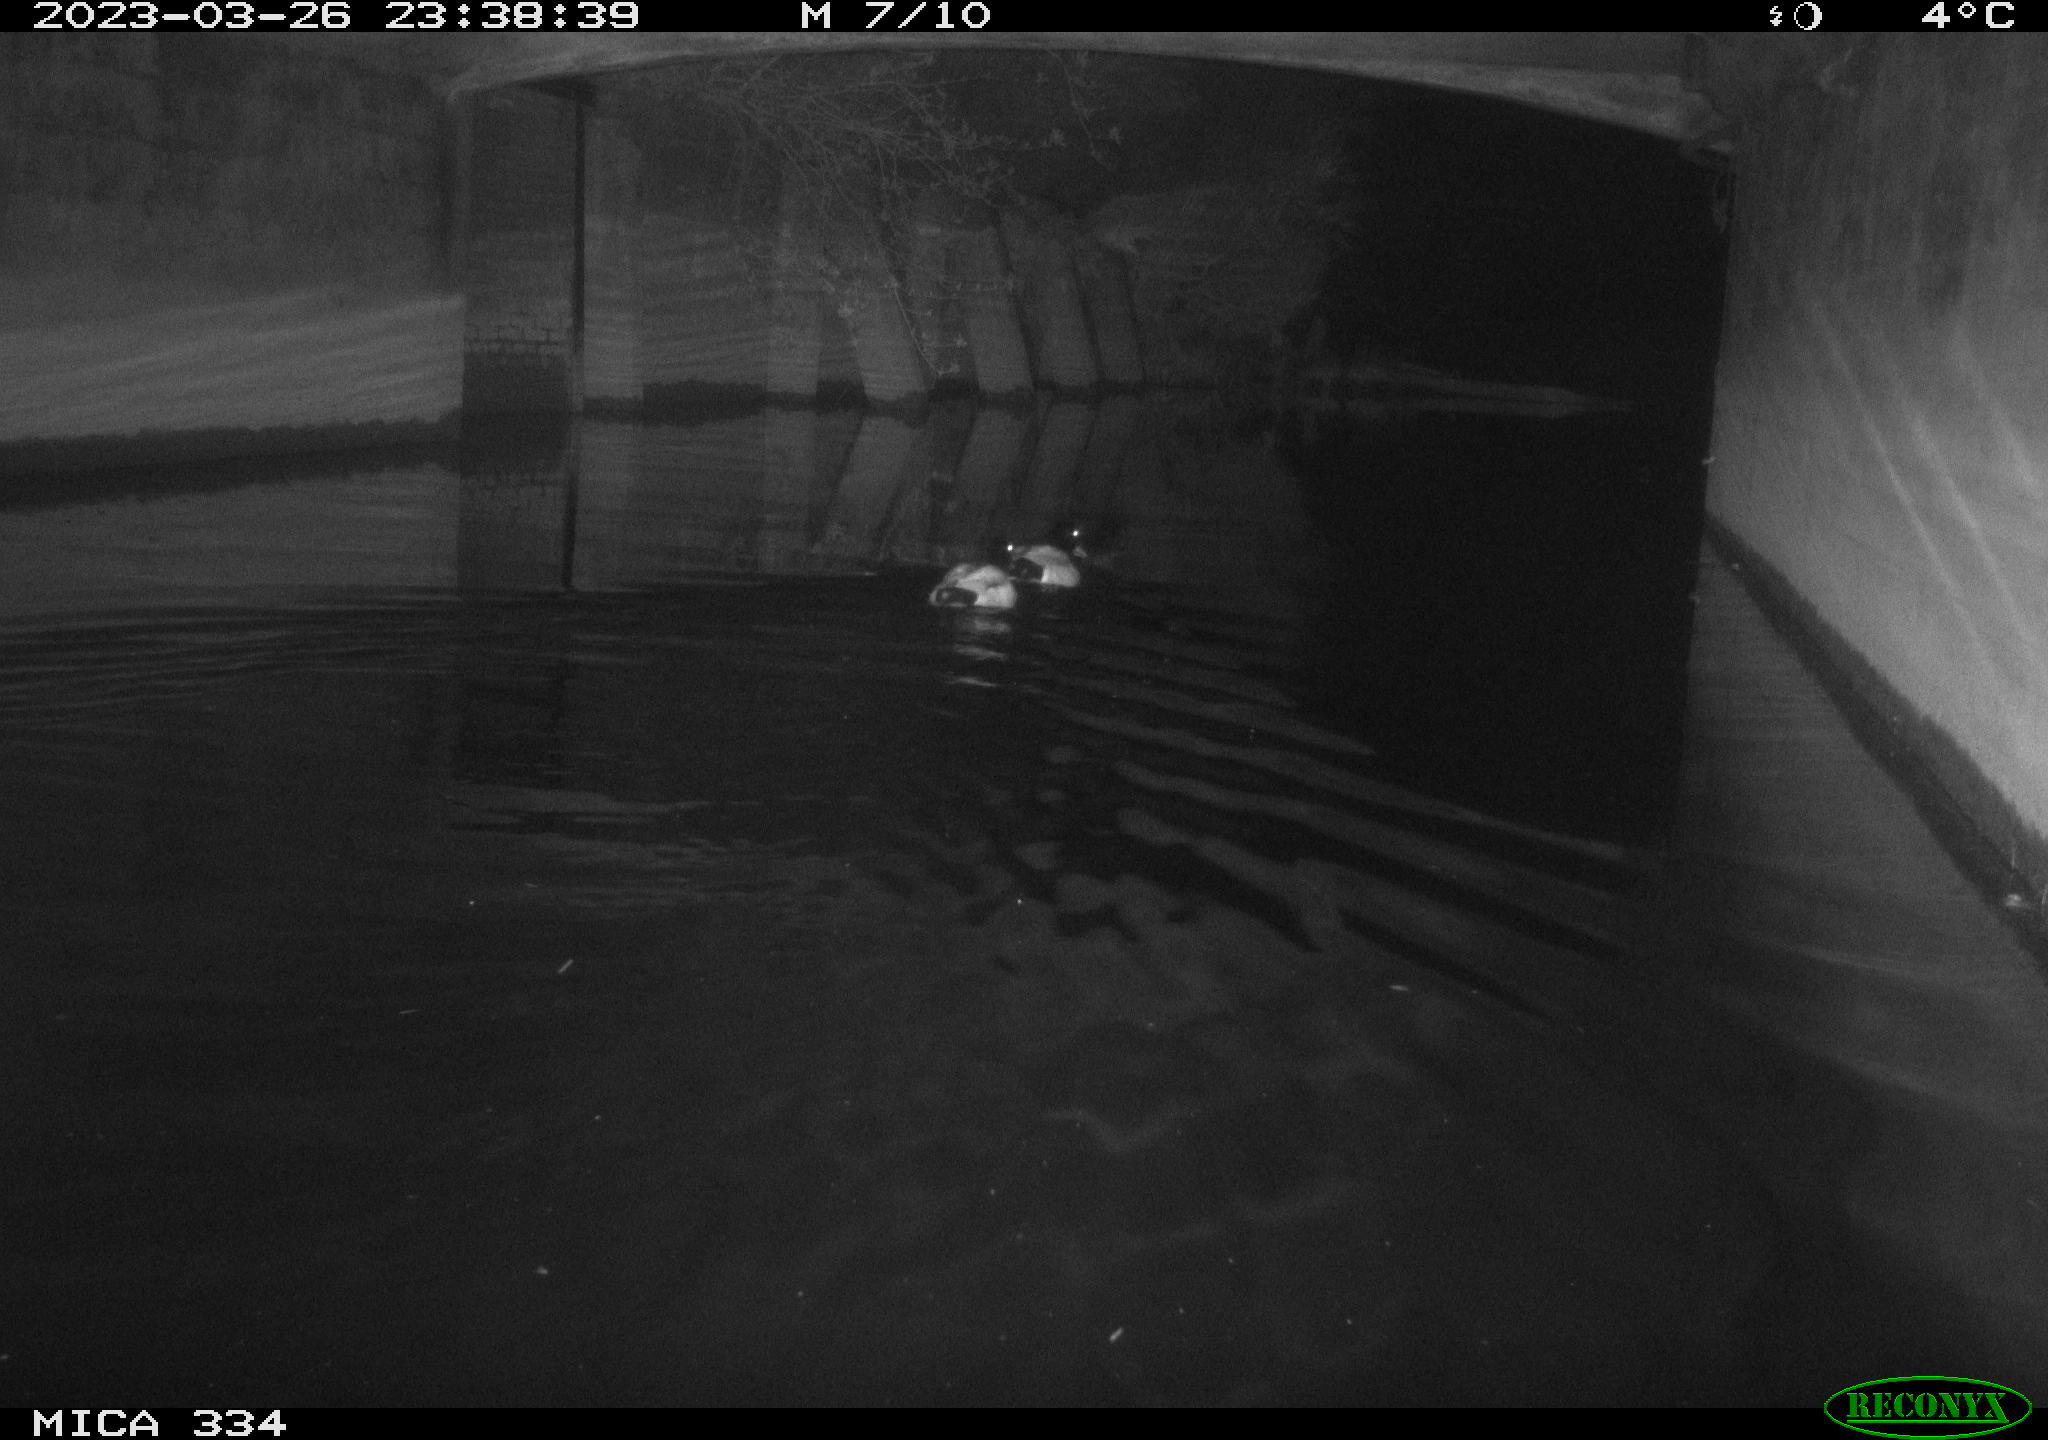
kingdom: Animalia
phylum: Chordata
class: Aves
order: Anseriformes
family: Anatidae
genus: Anas
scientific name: Anas
